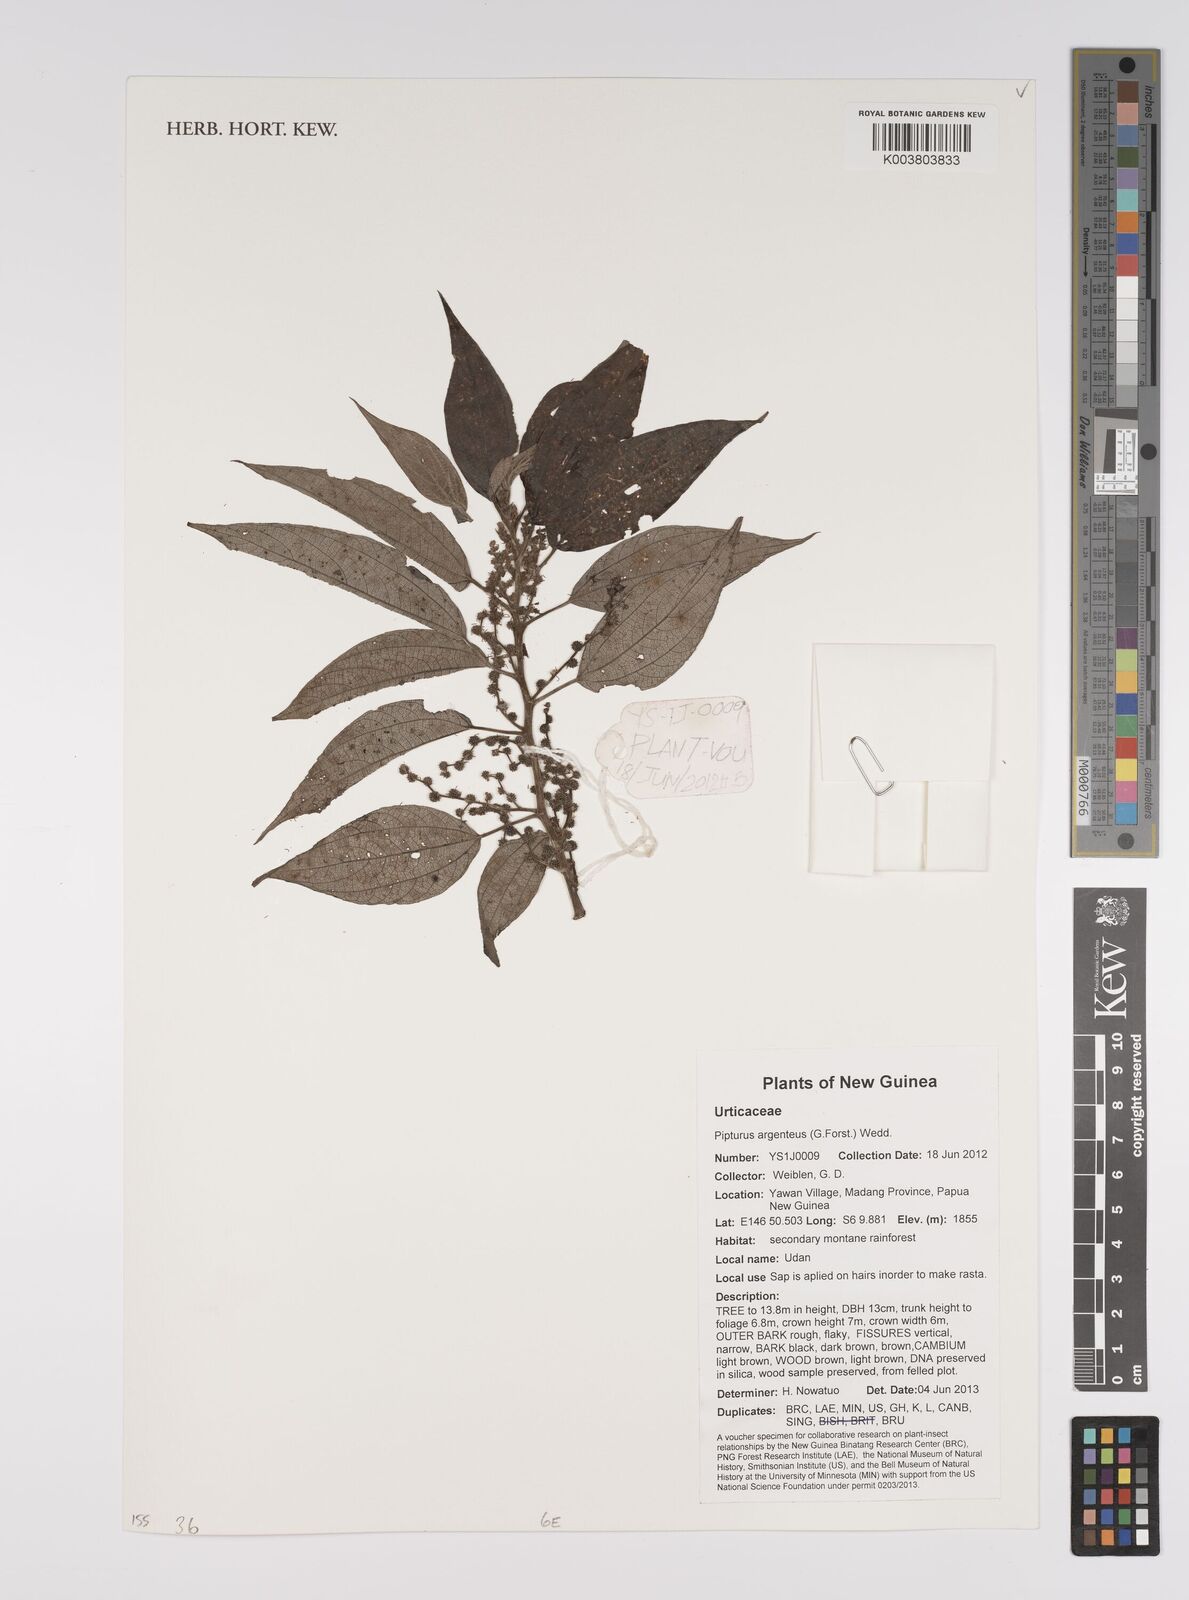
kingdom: Plantae
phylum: Tracheophyta
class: Magnoliopsida
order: Rosales
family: Urticaceae
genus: Pipturus
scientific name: Pipturus argenteus
